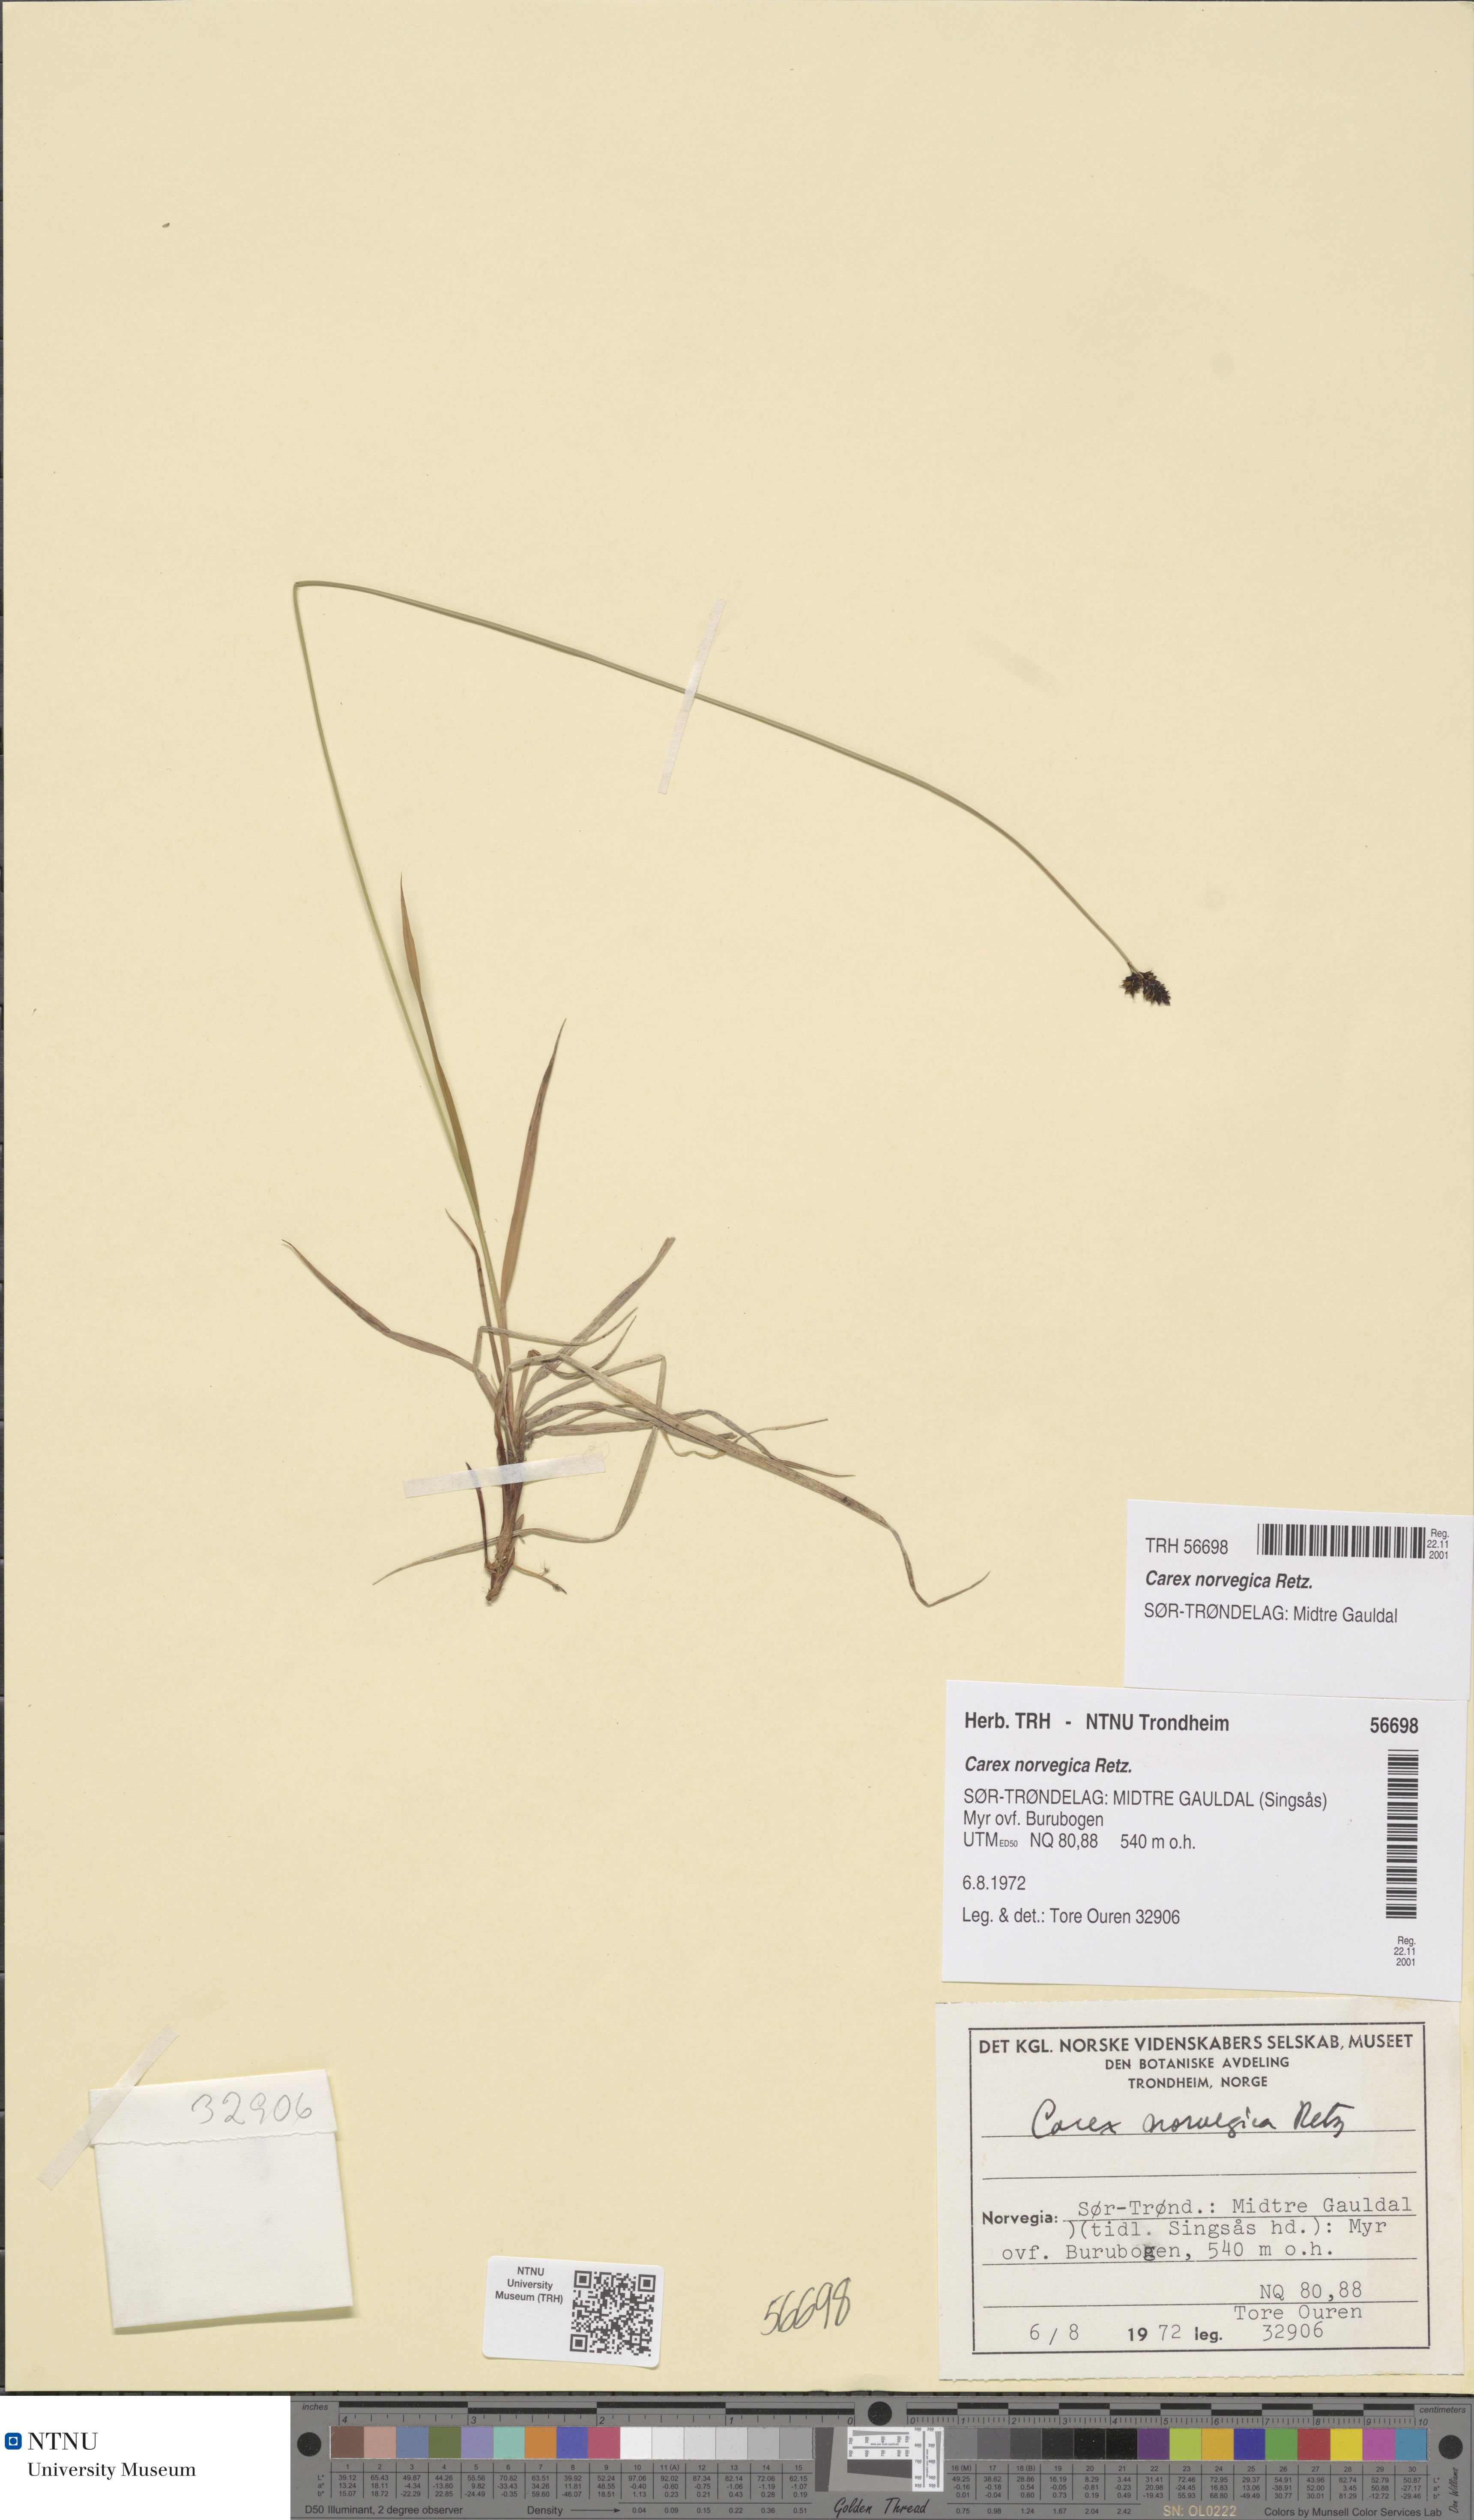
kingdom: Plantae
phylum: Tracheophyta
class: Liliopsida
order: Poales
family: Cyperaceae
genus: Carex
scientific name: Carex norvegica
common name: Close-headed alpine-sedge
